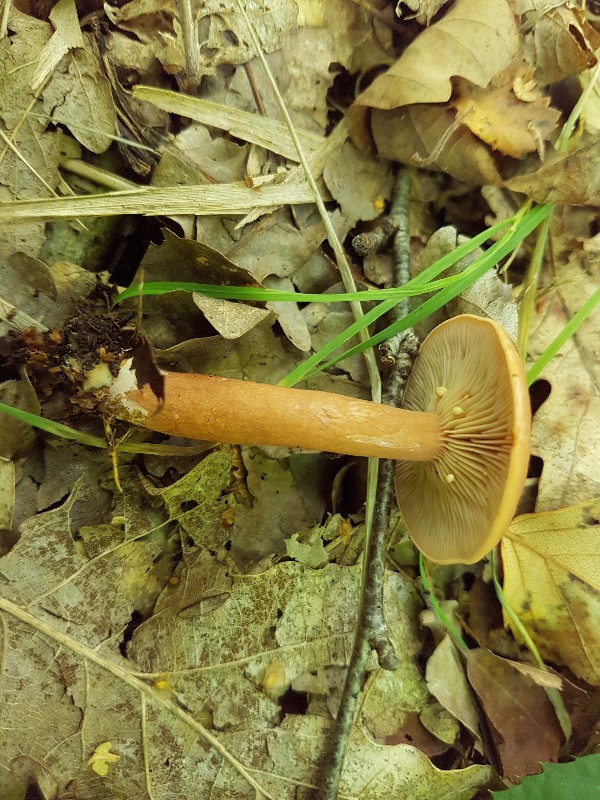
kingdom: Fungi
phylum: Basidiomycota
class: Agaricomycetes
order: Russulales
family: Russulaceae
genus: Lactarius
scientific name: Lactarius tabidus
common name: rynket mælkehat
